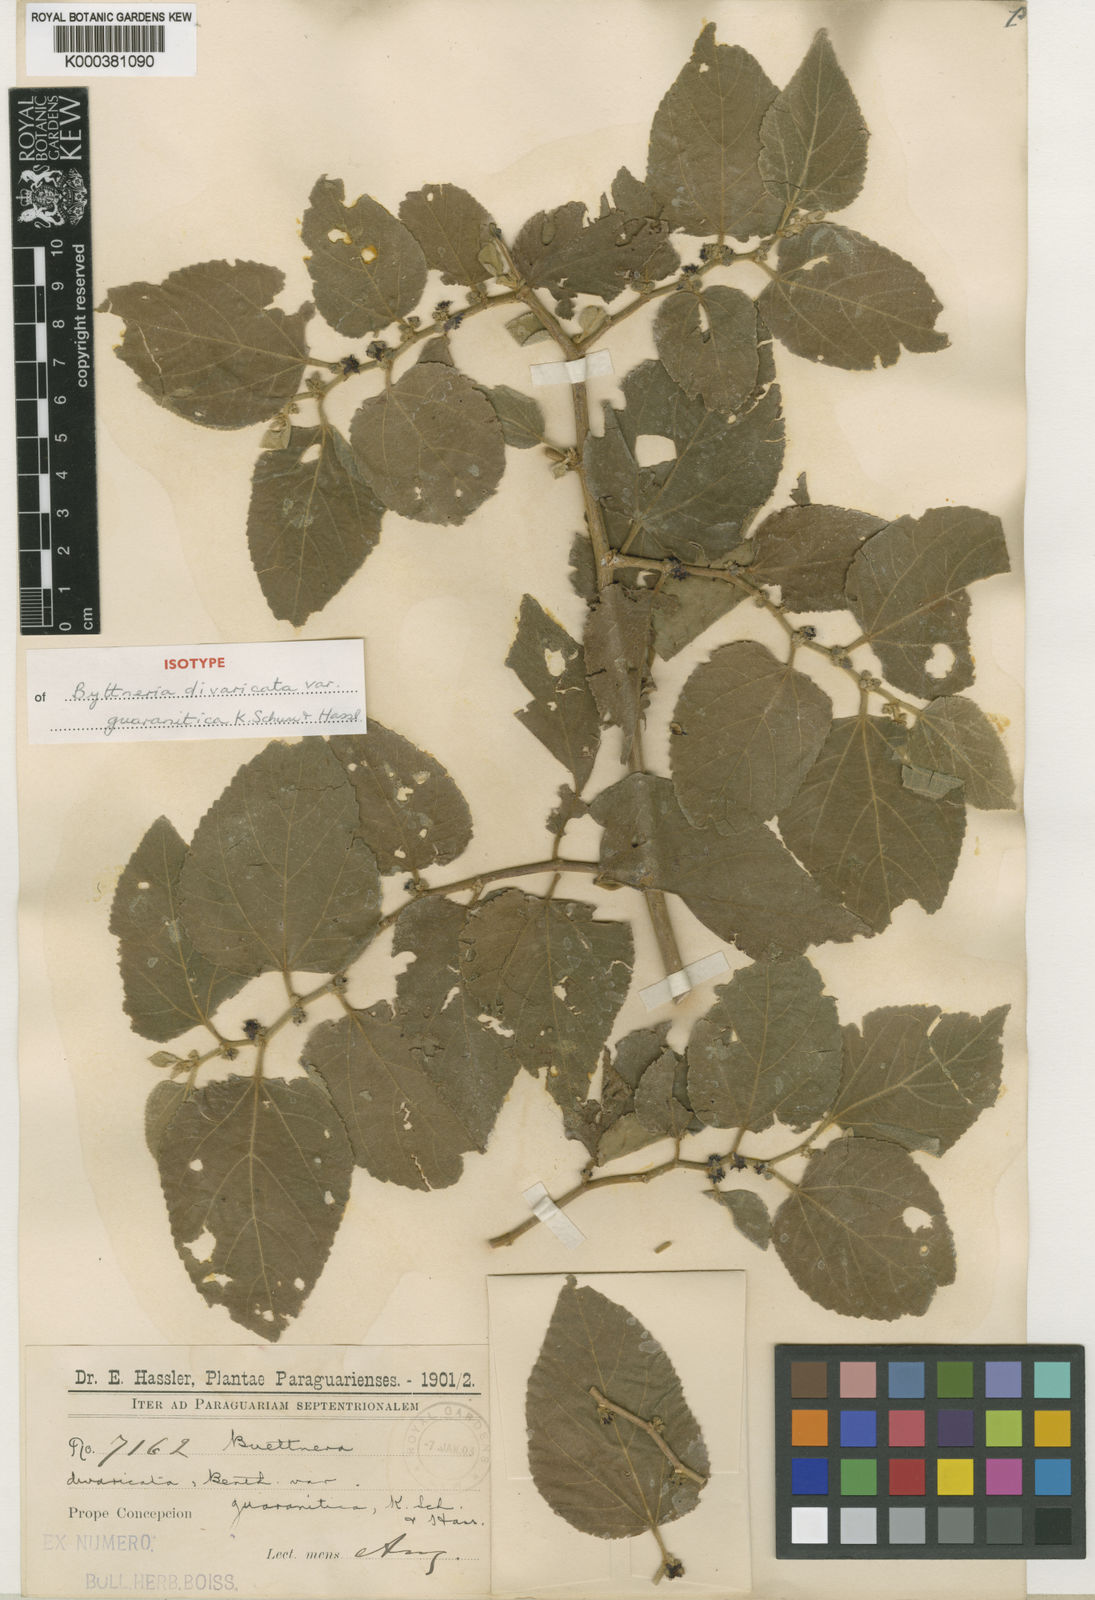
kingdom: Plantae
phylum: Tracheophyta
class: Magnoliopsida
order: Malvales
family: Malvaceae
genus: Byttneria
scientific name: Byttneria divaricata
